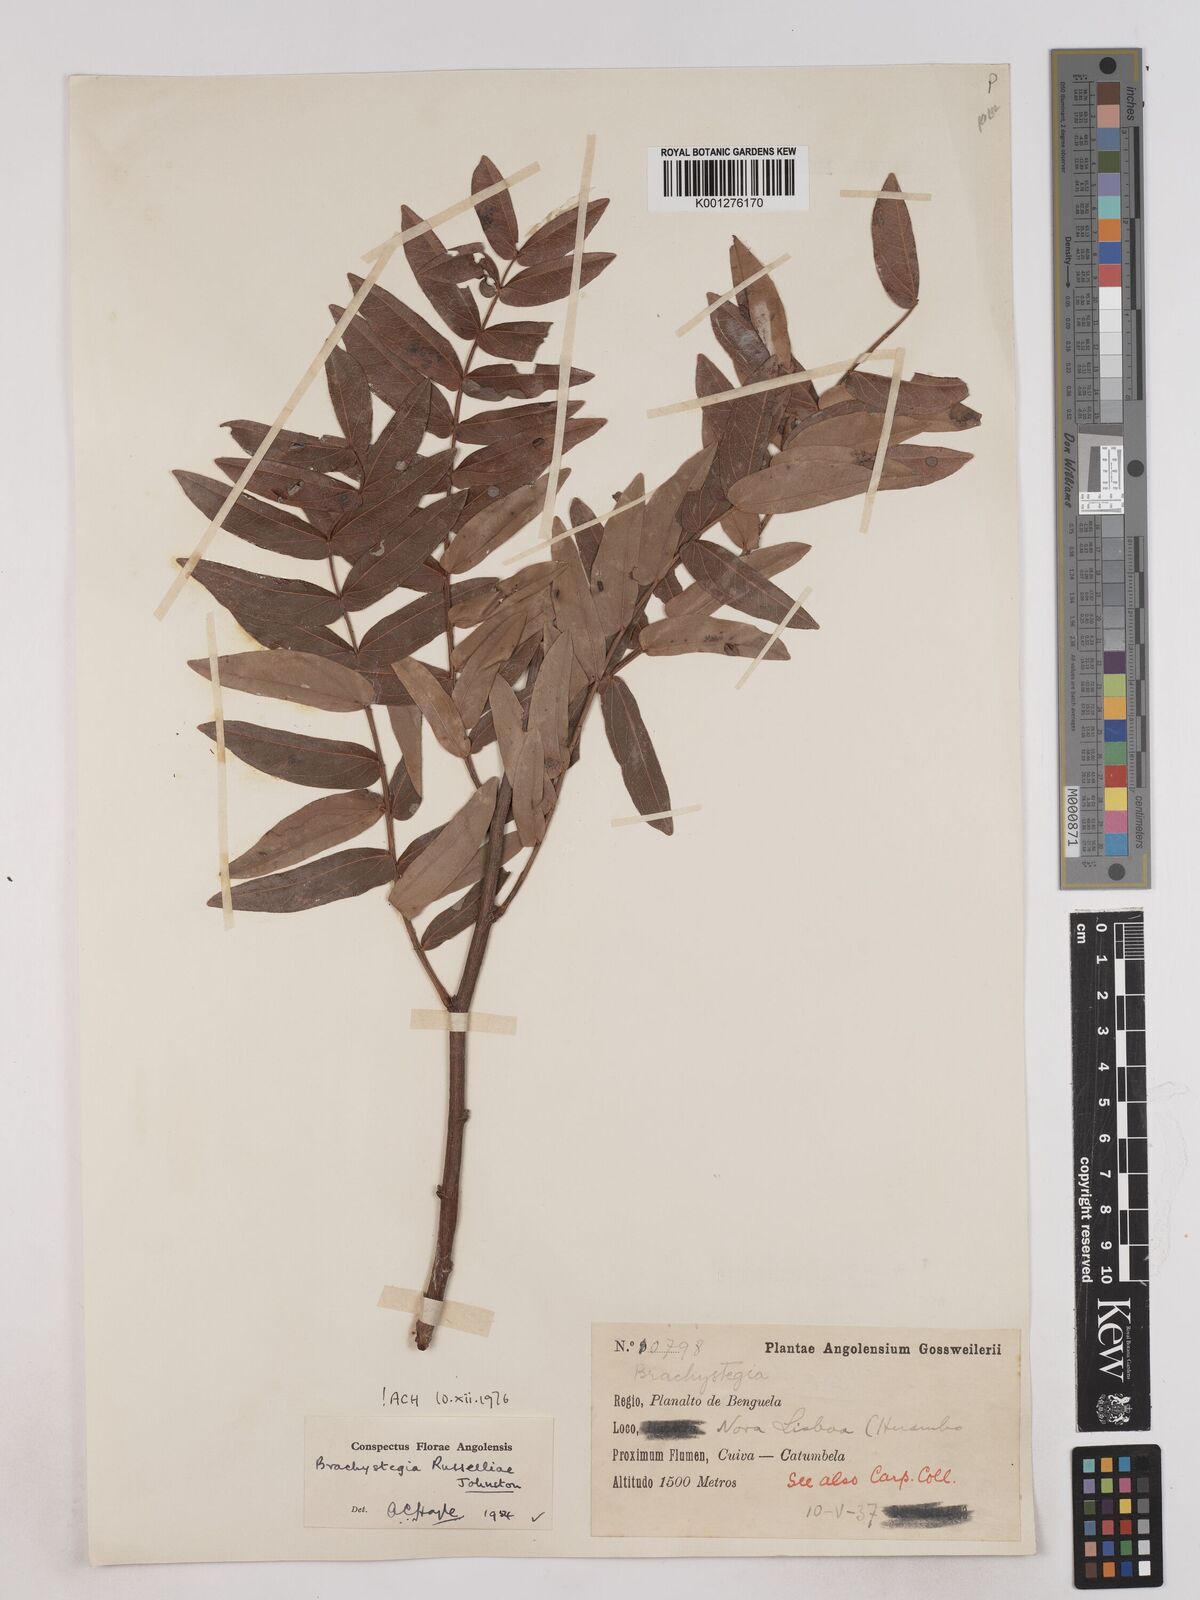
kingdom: Plantae
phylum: Tracheophyta
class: Magnoliopsida
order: Fabales
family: Fabaceae
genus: Brachystegia
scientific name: Brachystegia russelliae
